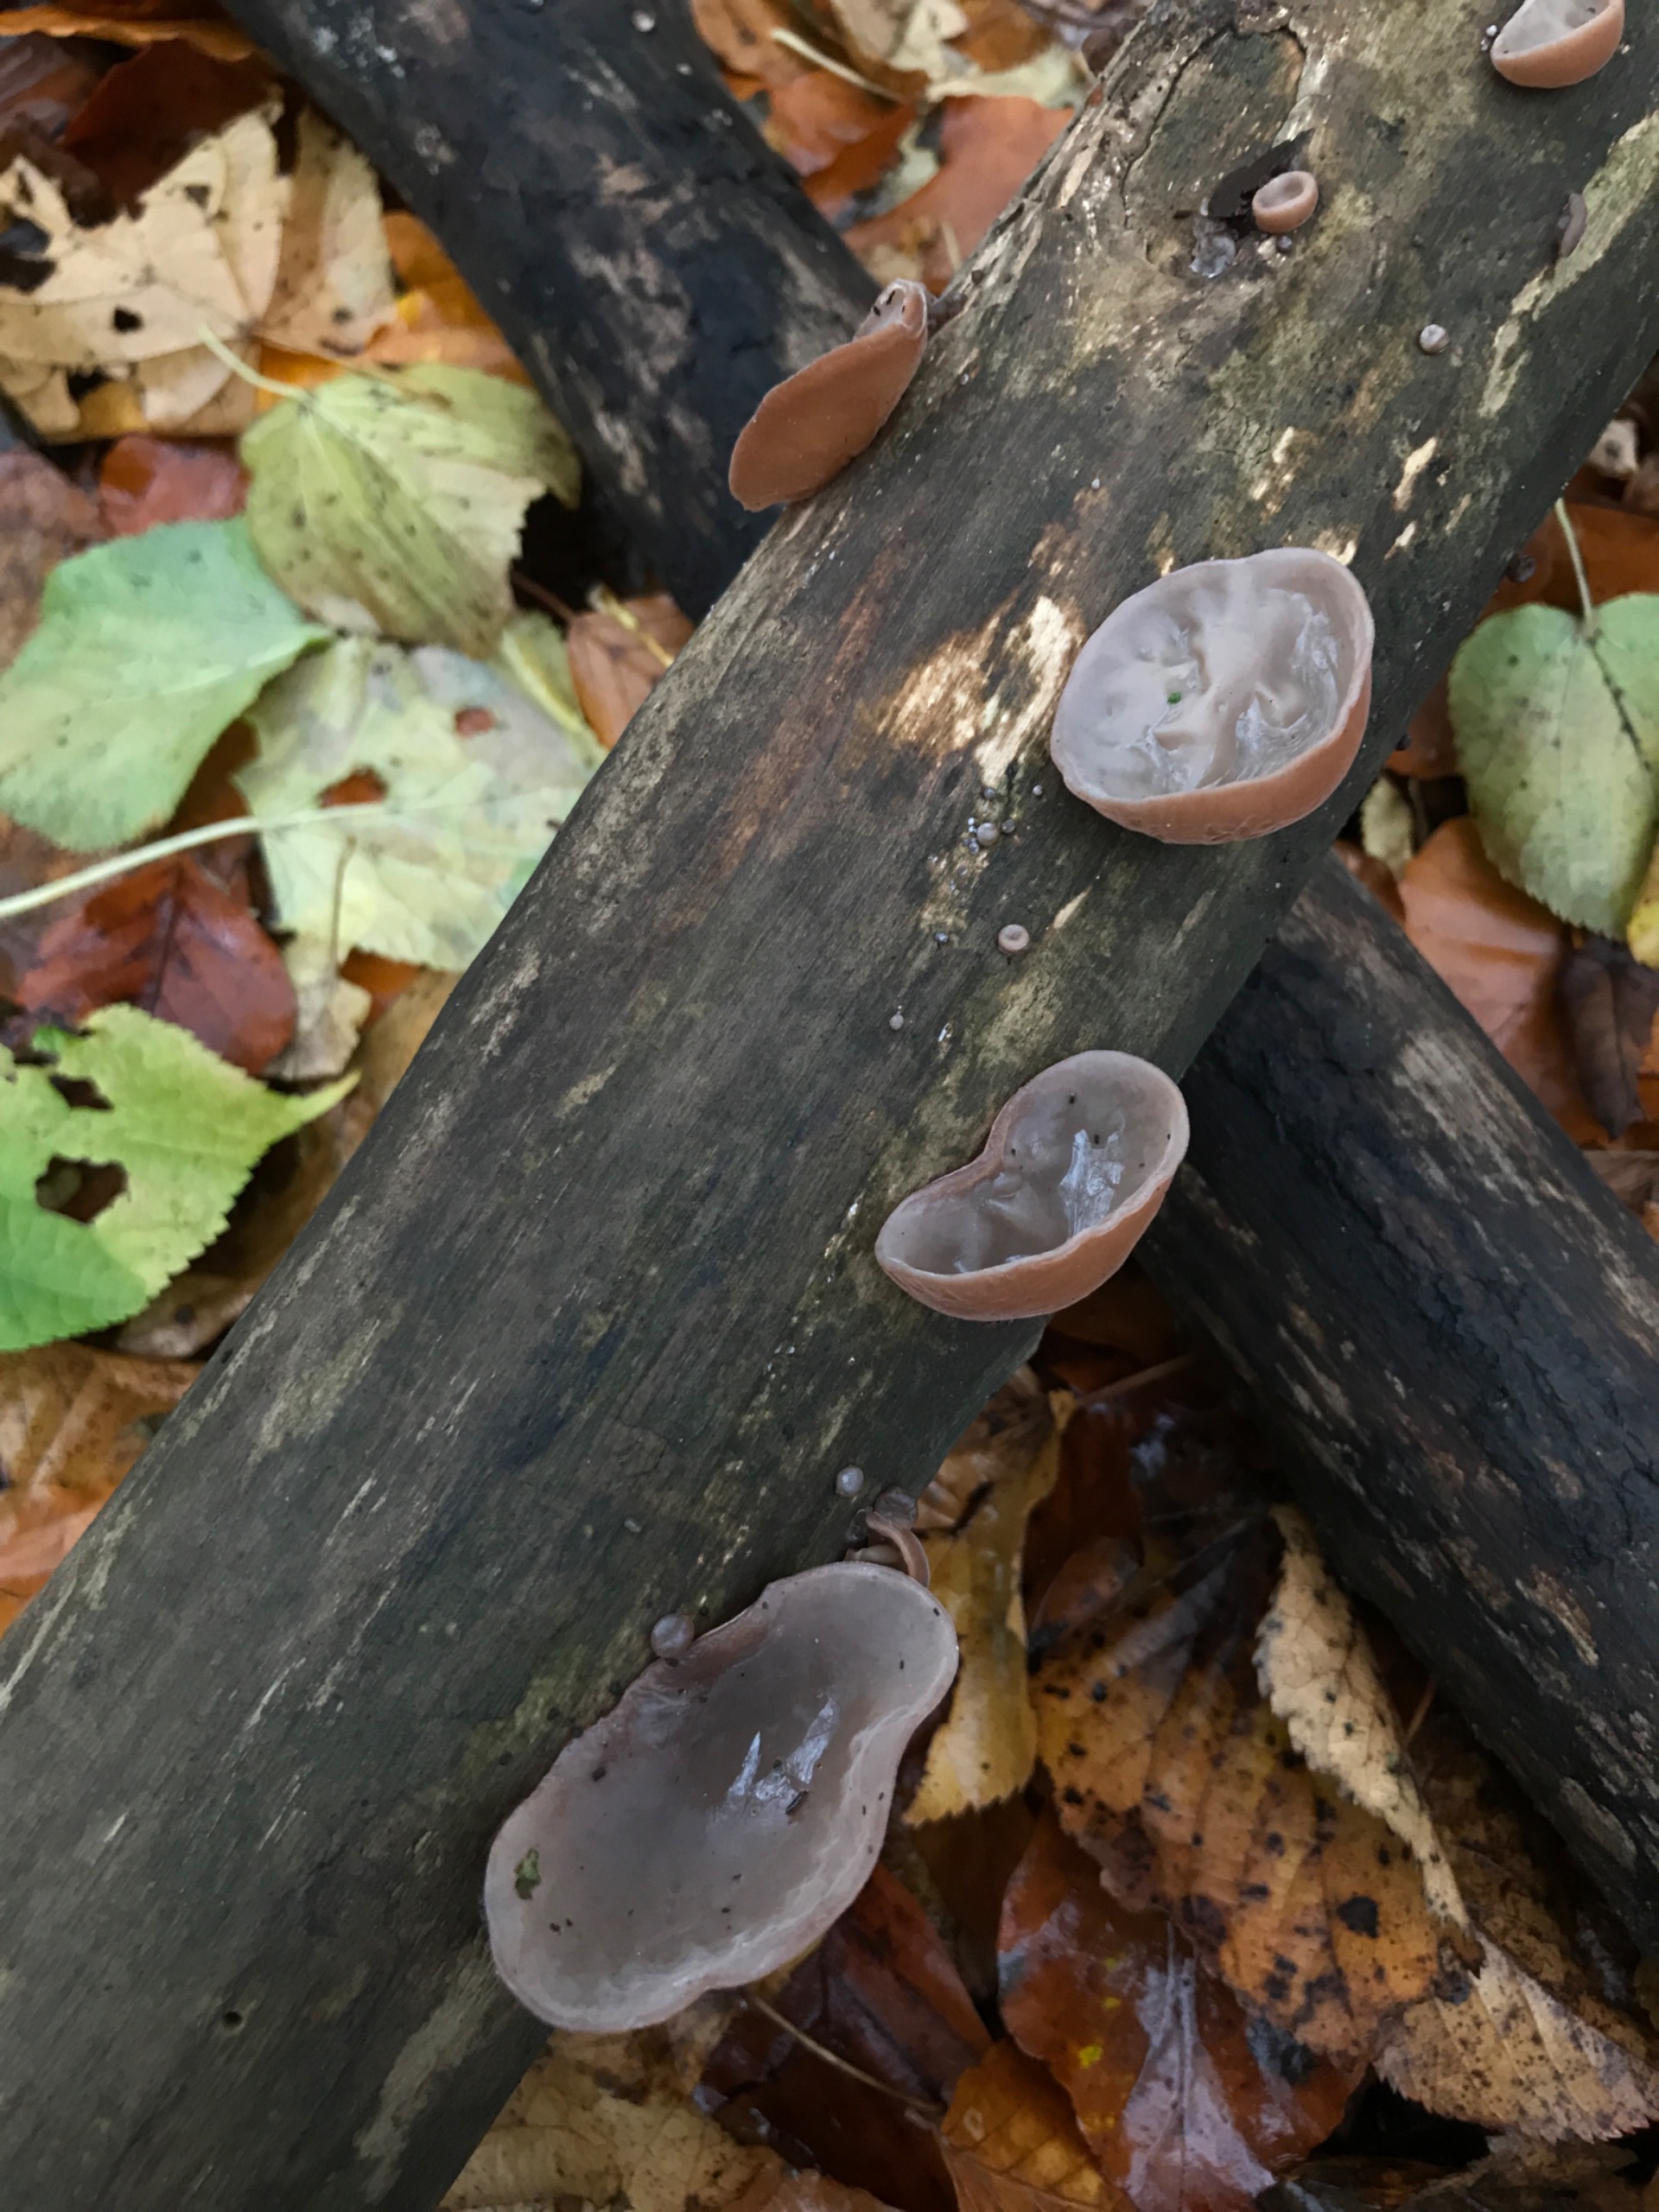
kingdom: Fungi
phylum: Basidiomycota
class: Agaricomycetes
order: Auriculariales
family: Auriculariaceae
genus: Auricularia
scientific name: Auricularia auricula-judae
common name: Almindelig judasøre
